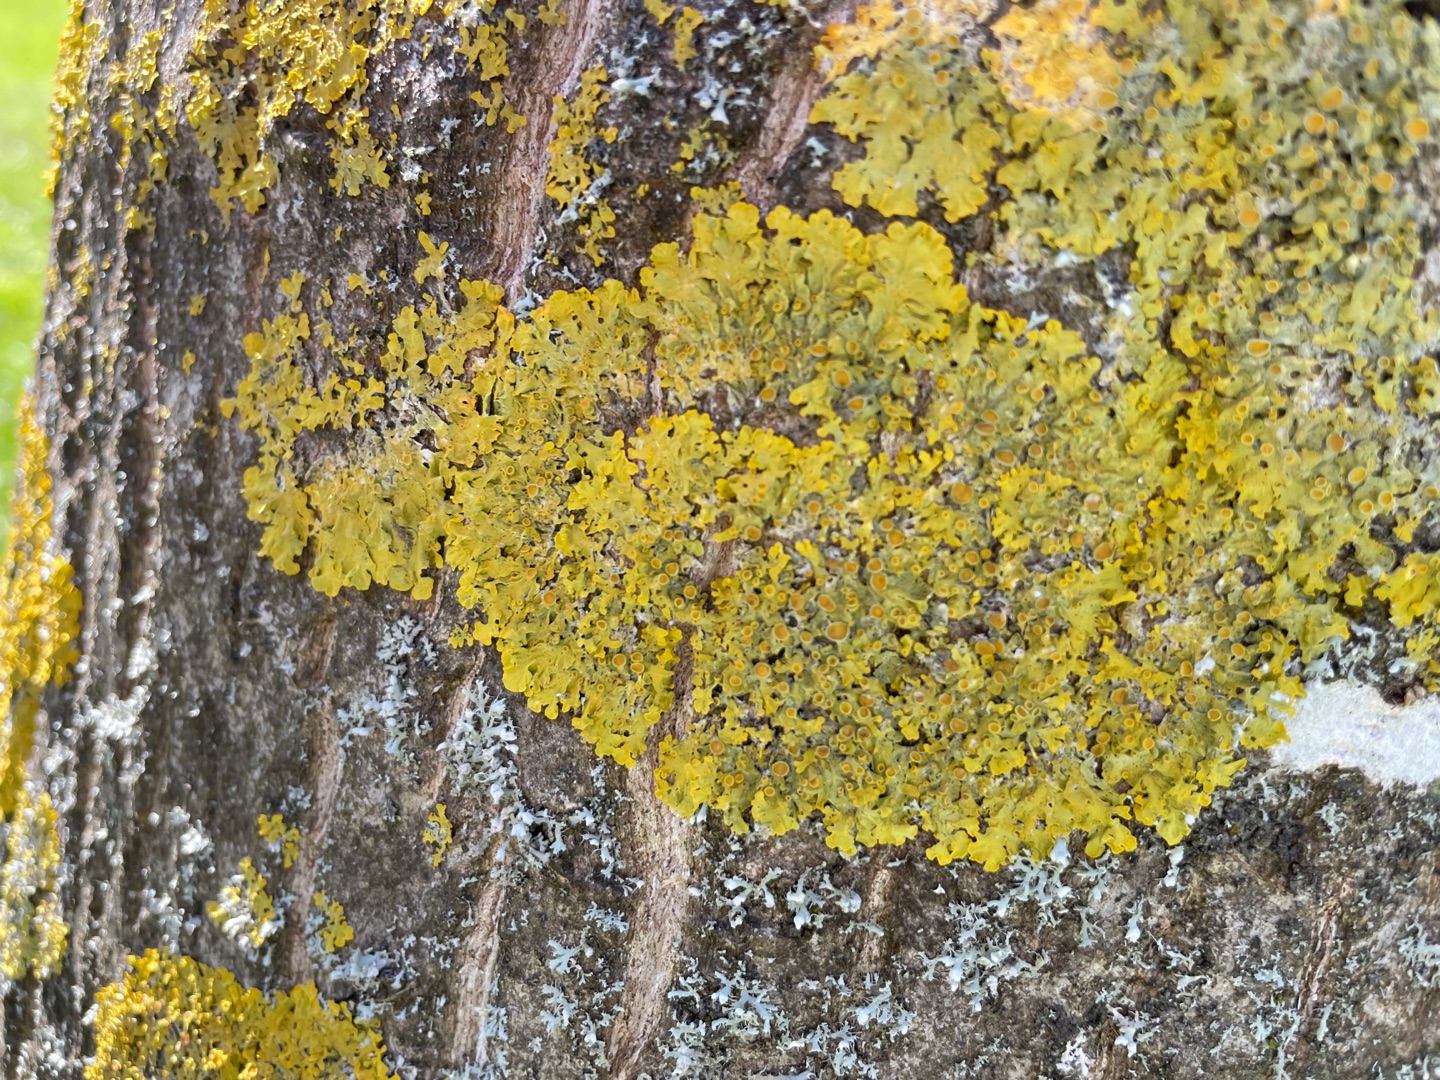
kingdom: Fungi
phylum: Ascomycota
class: Lecanoromycetes
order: Teloschistales
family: Teloschistaceae
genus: Xanthoria
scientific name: Xanthoria parietina
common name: Almindelig væggelav
